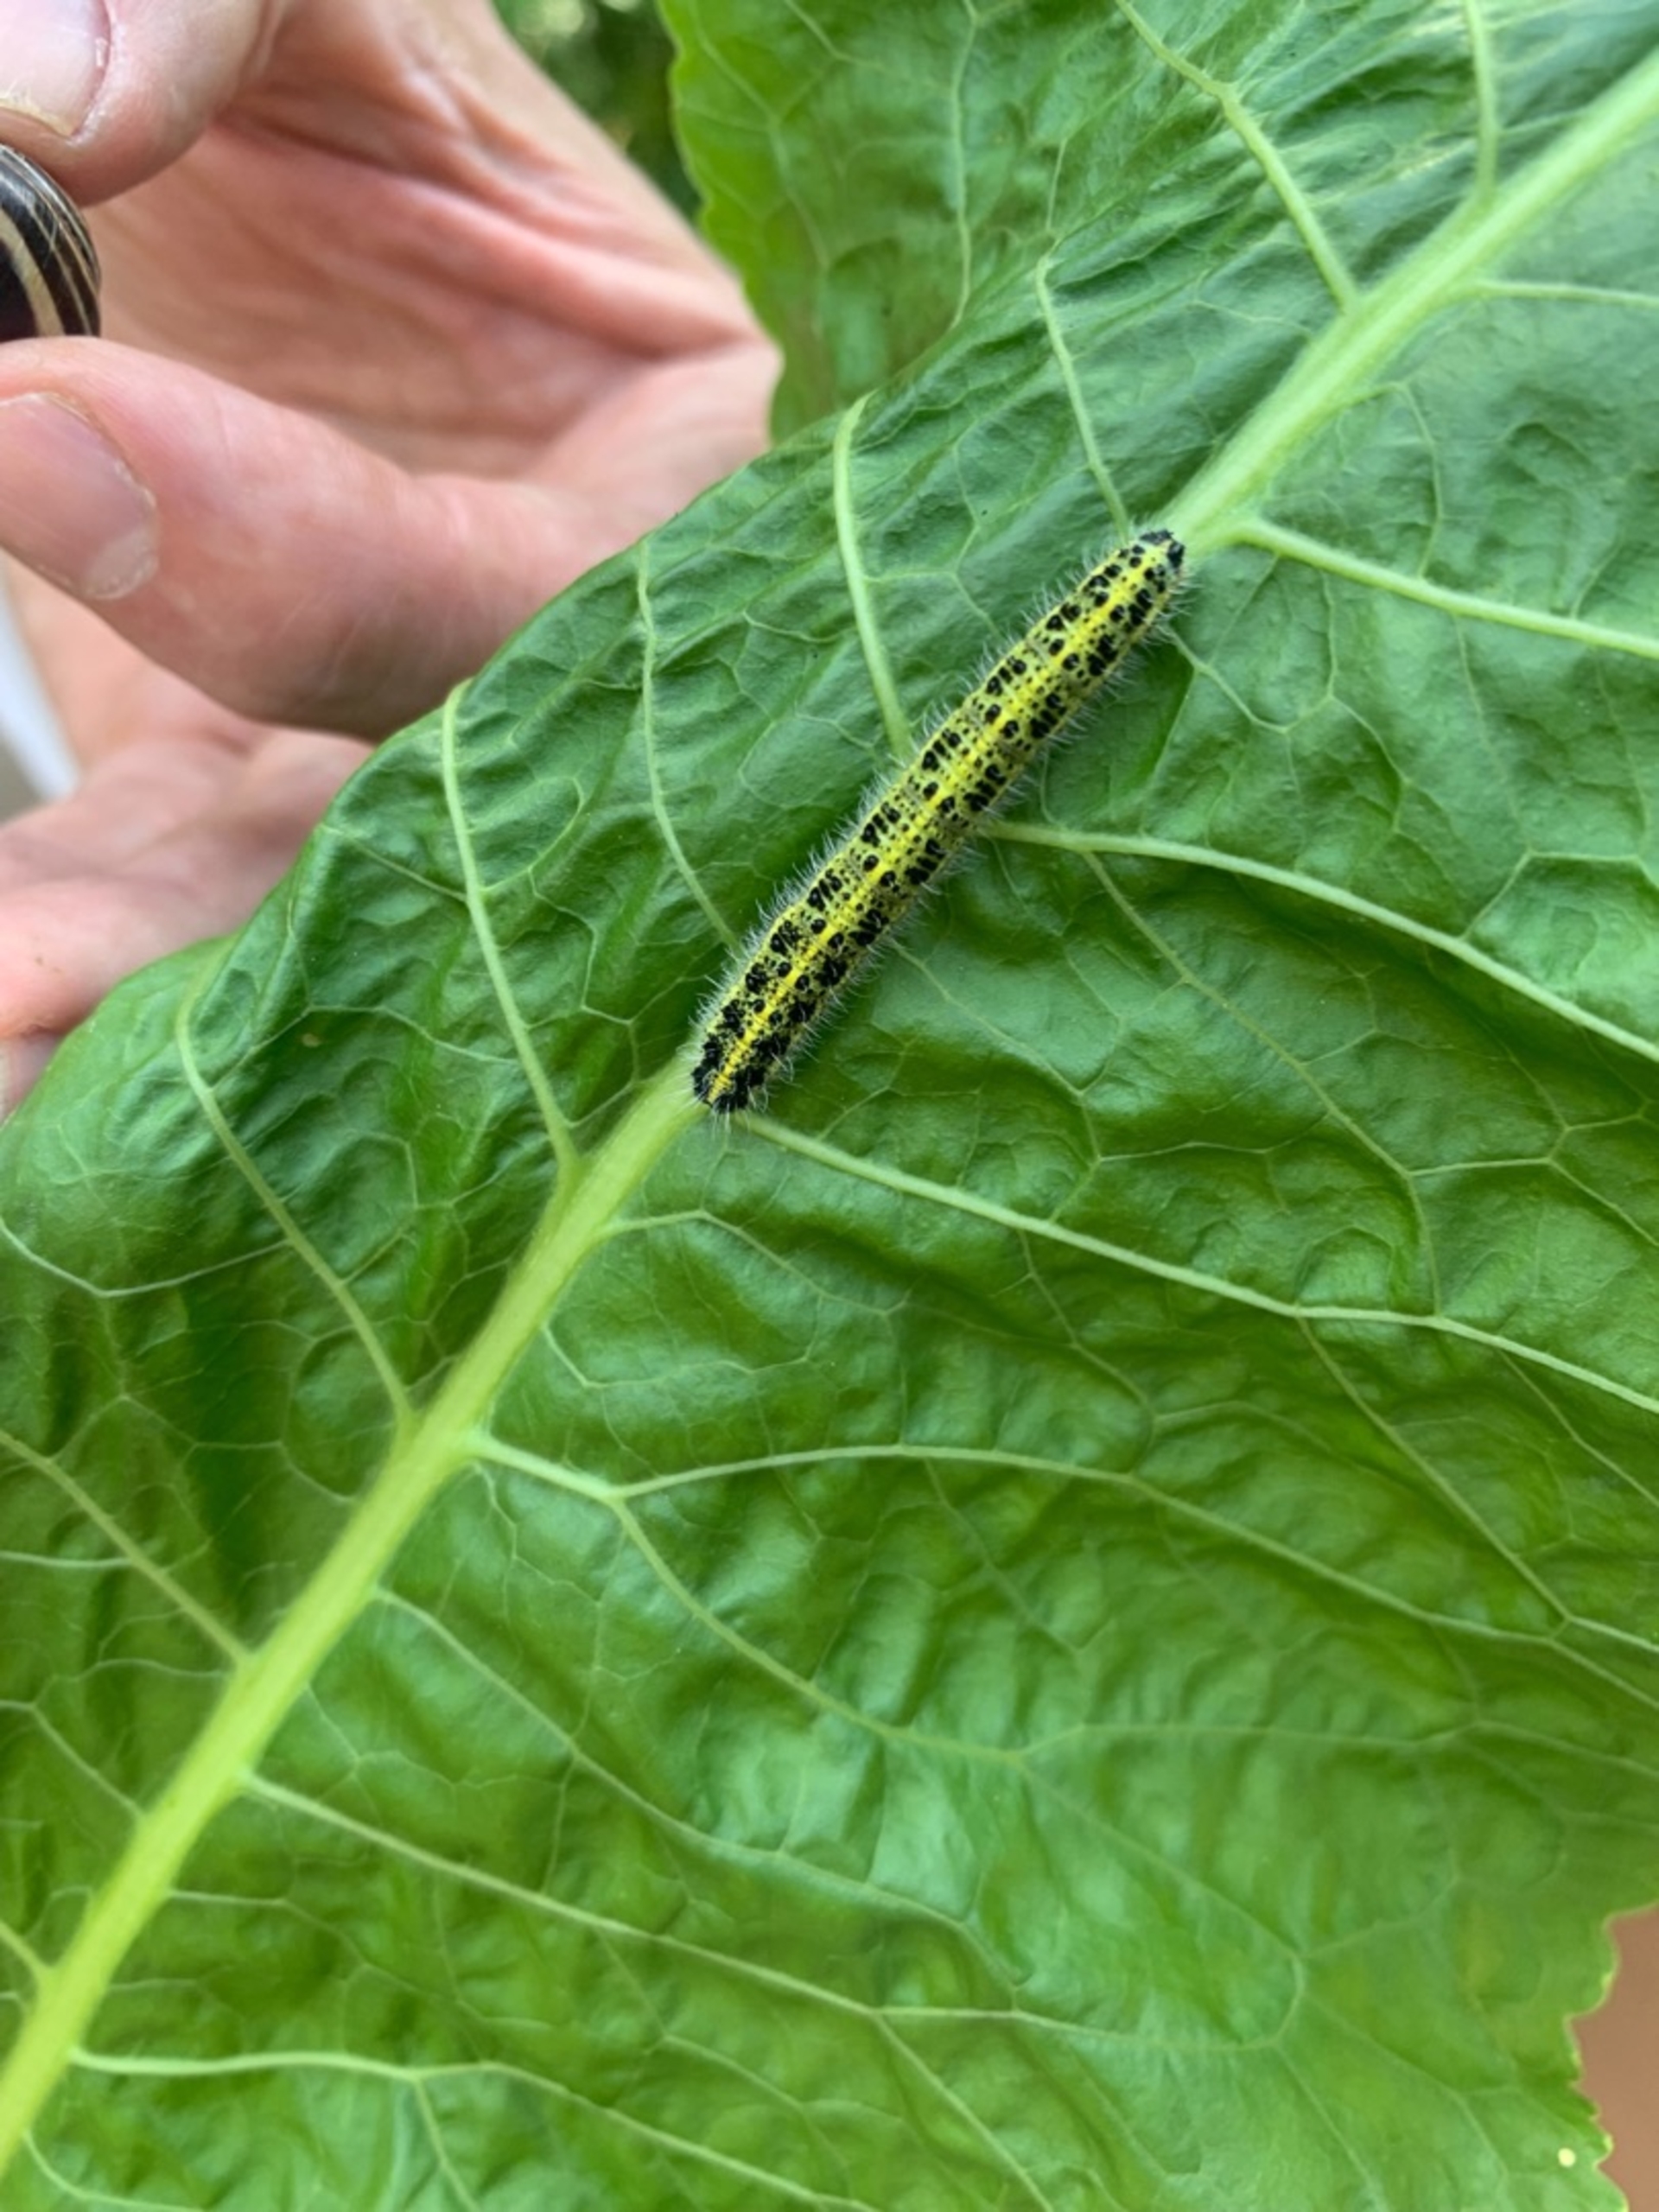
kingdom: Animalia
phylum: Arthropoda
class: Insecta
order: Lepidoptera
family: Pieridae
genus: Pieris
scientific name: Pieris brassicae
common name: Stor kålsommerfugl
